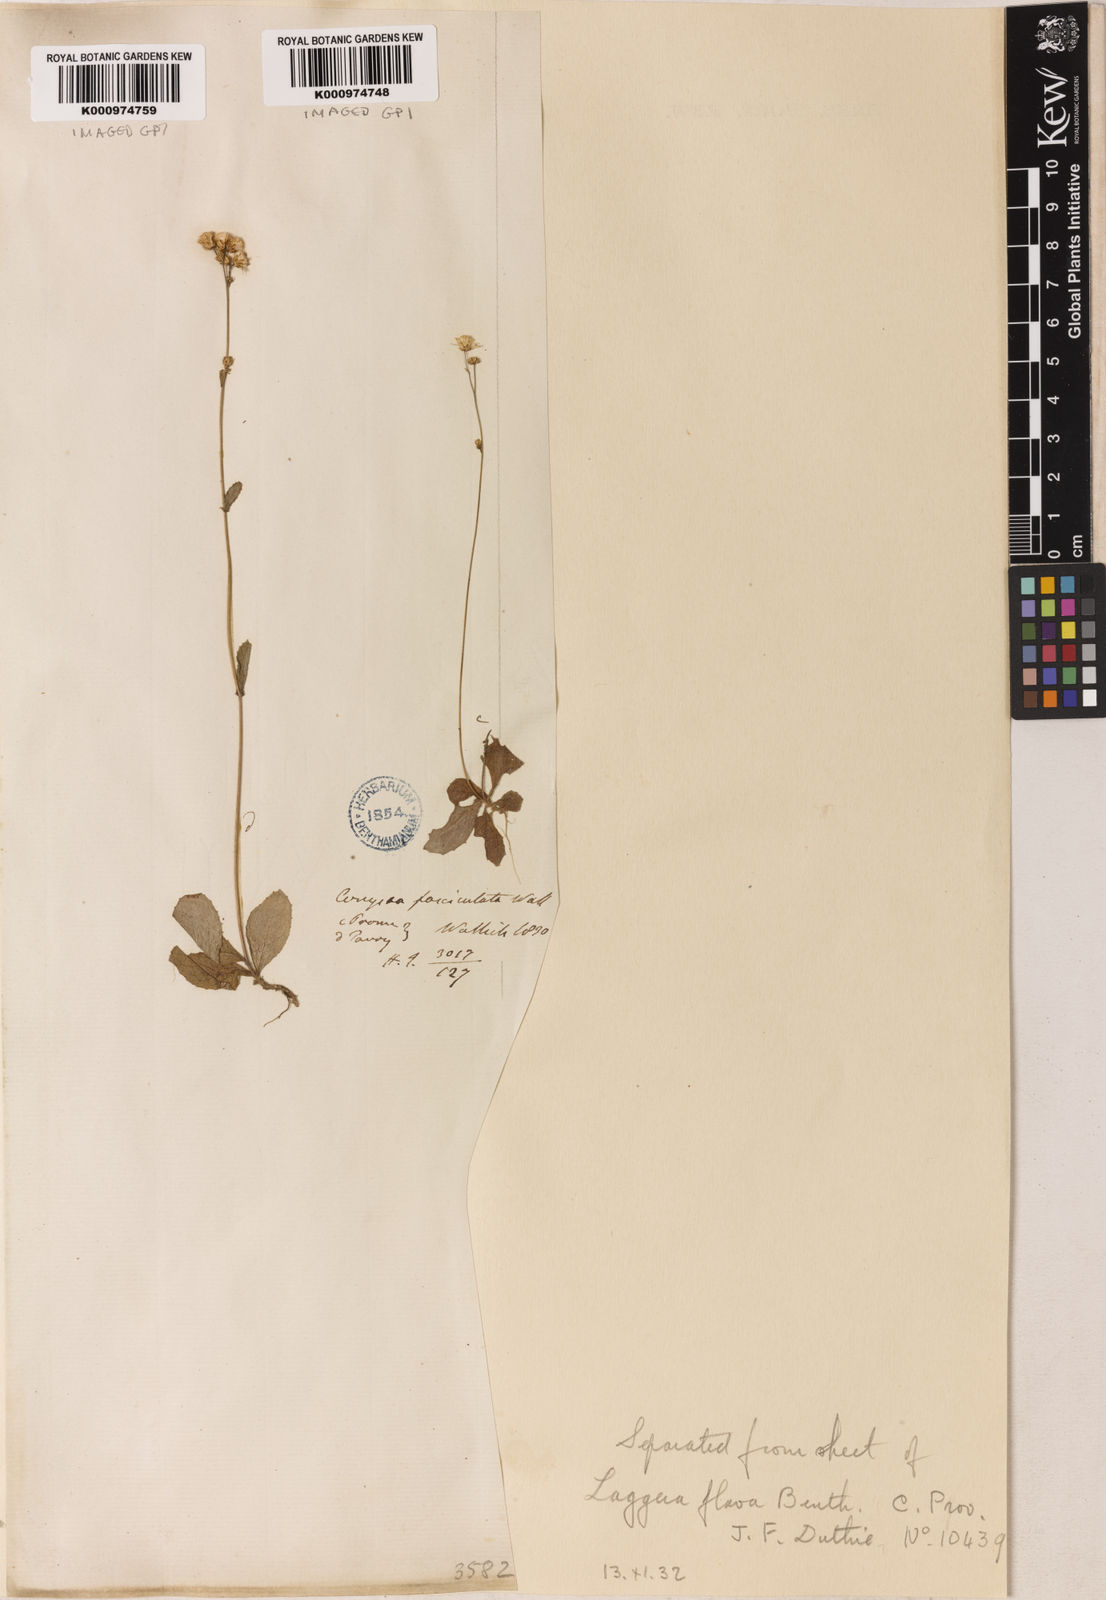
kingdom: Plantae
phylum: Tracheophyta
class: Magnoliopsida
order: Asterales
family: Asteraceae
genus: Blumeopsis
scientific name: Blumeopsis flava
